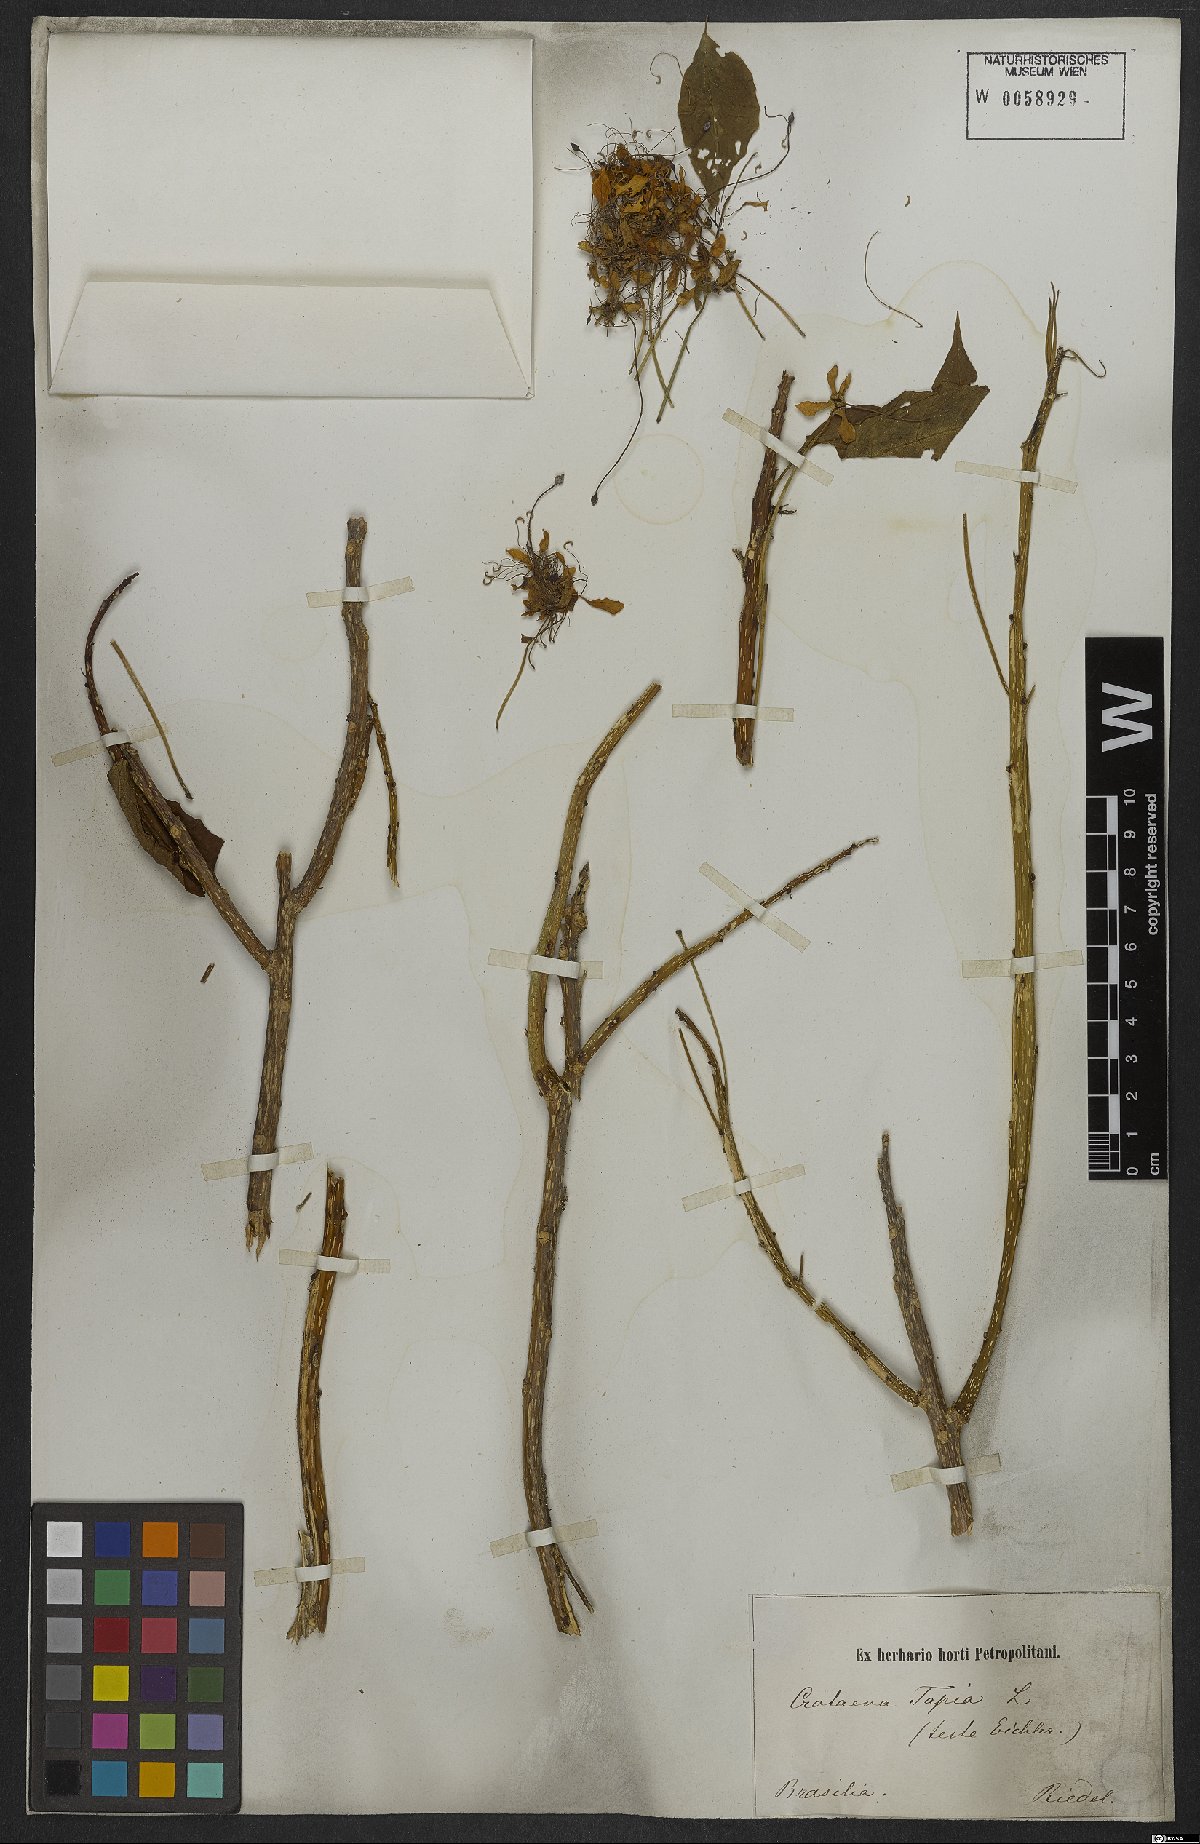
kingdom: Plantae
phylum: Tracheophyta
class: Magnoliopsida
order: Brassicales
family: Capparaceae
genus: Crateva
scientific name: Crateva tapia
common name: Garlic-pear
